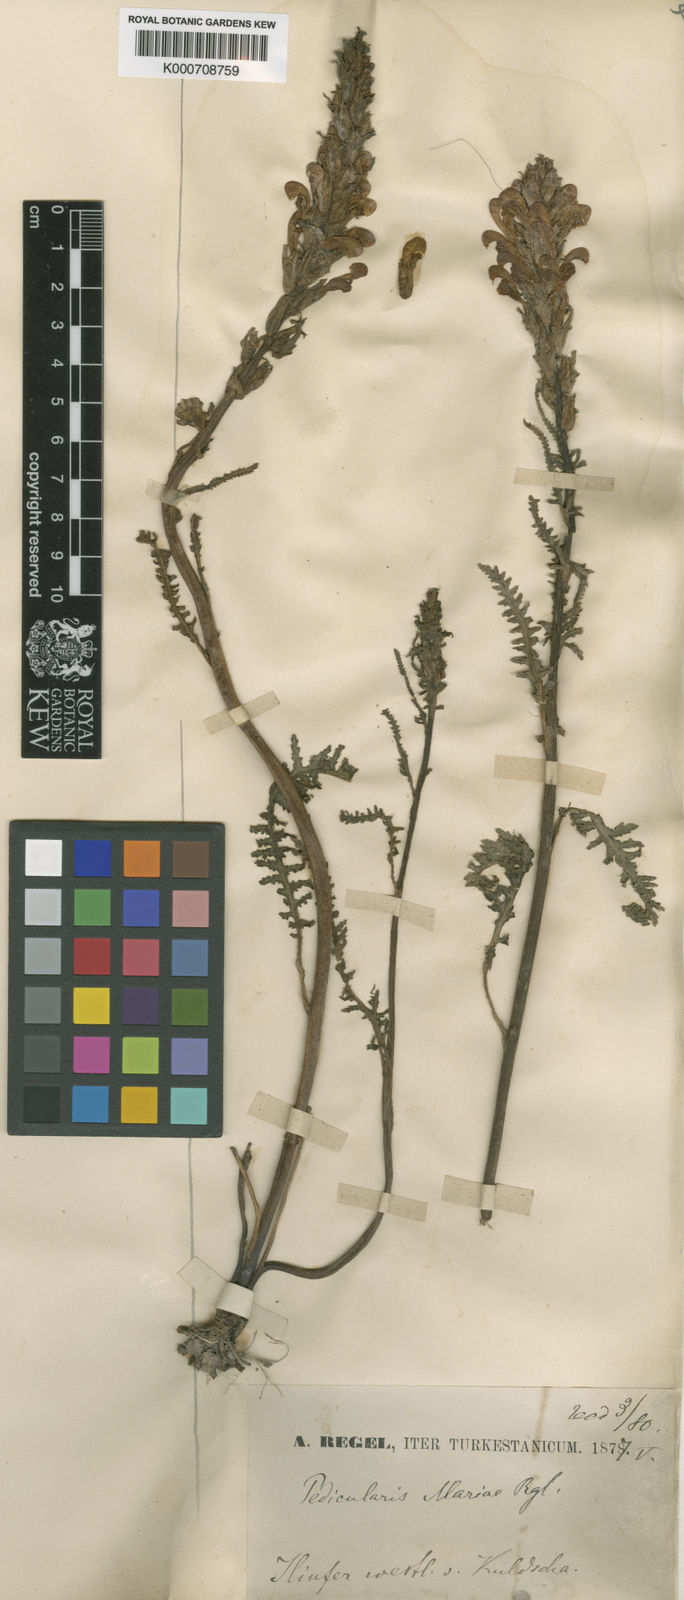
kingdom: Plantae
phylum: Tracheophyta
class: Magnoliopsida
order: Lamiales
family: Orobanchaceae
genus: Pedicularis
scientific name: Pedicularis mariae
